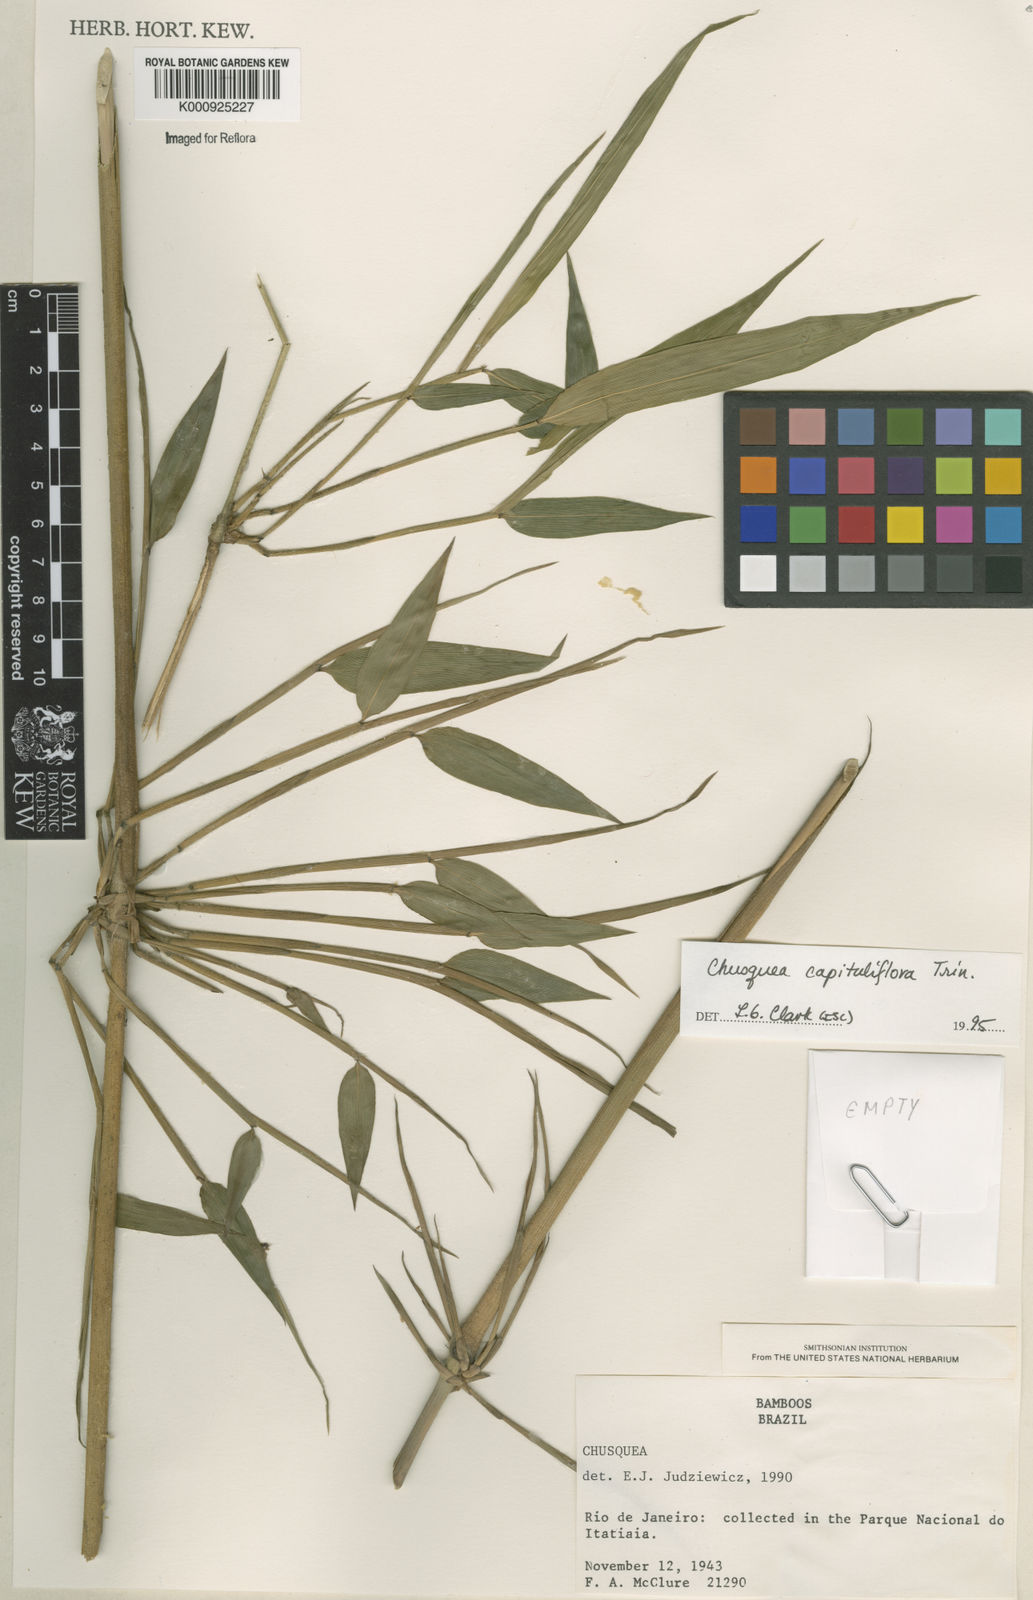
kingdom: Plantae
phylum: Tracheophyta
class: Liliopsida
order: Poales
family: Poaceae
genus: Chusquea
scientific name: Chusquea capituliflora
